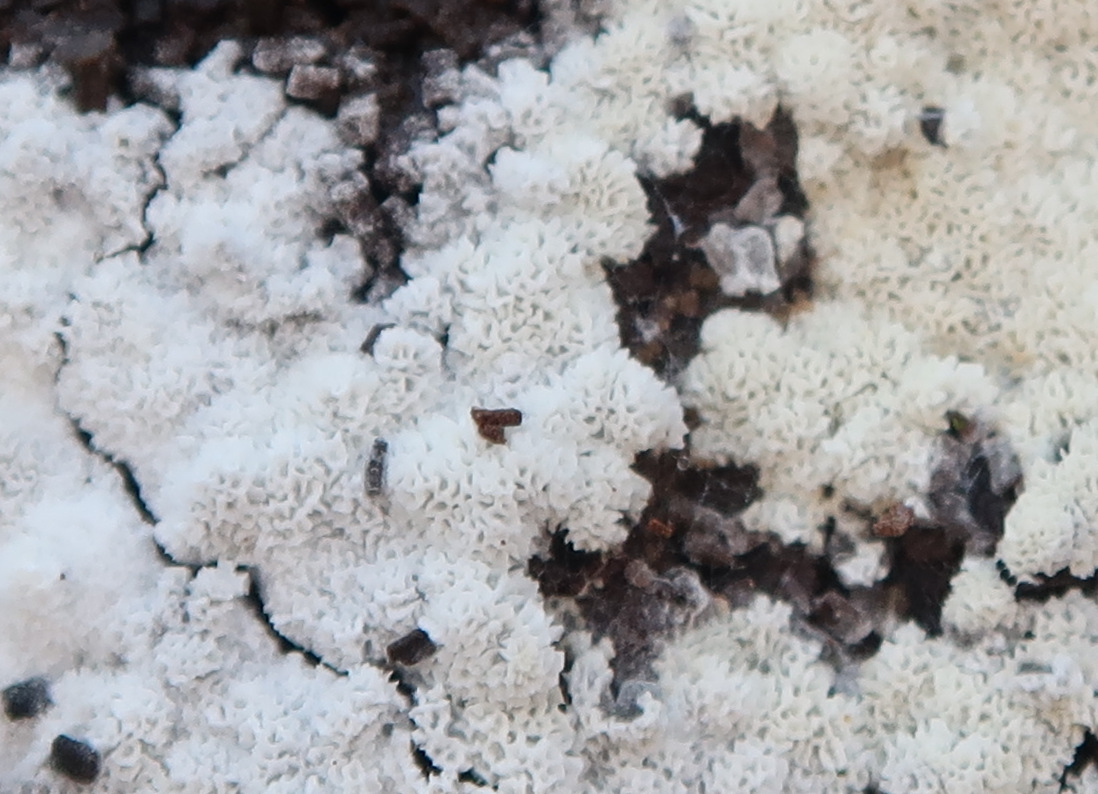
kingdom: Fungi
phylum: Basidiomycota
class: Agaricomycetes
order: Trechisporales
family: Sistotremataceae
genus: Trechispora
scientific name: Trechispora
